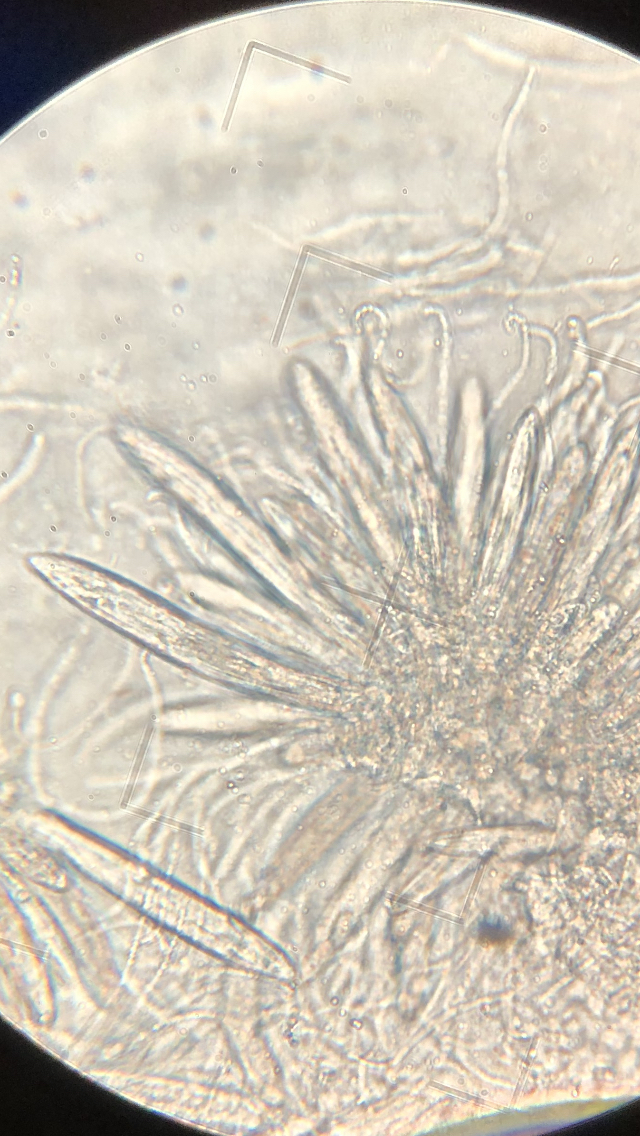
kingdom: Fungi
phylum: Ascomycota
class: Leotiomycetes
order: Rhytismatales
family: Rhytismataceae
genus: Lophodermium
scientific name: Lophodermium juniperinum
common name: ene-fureplet
